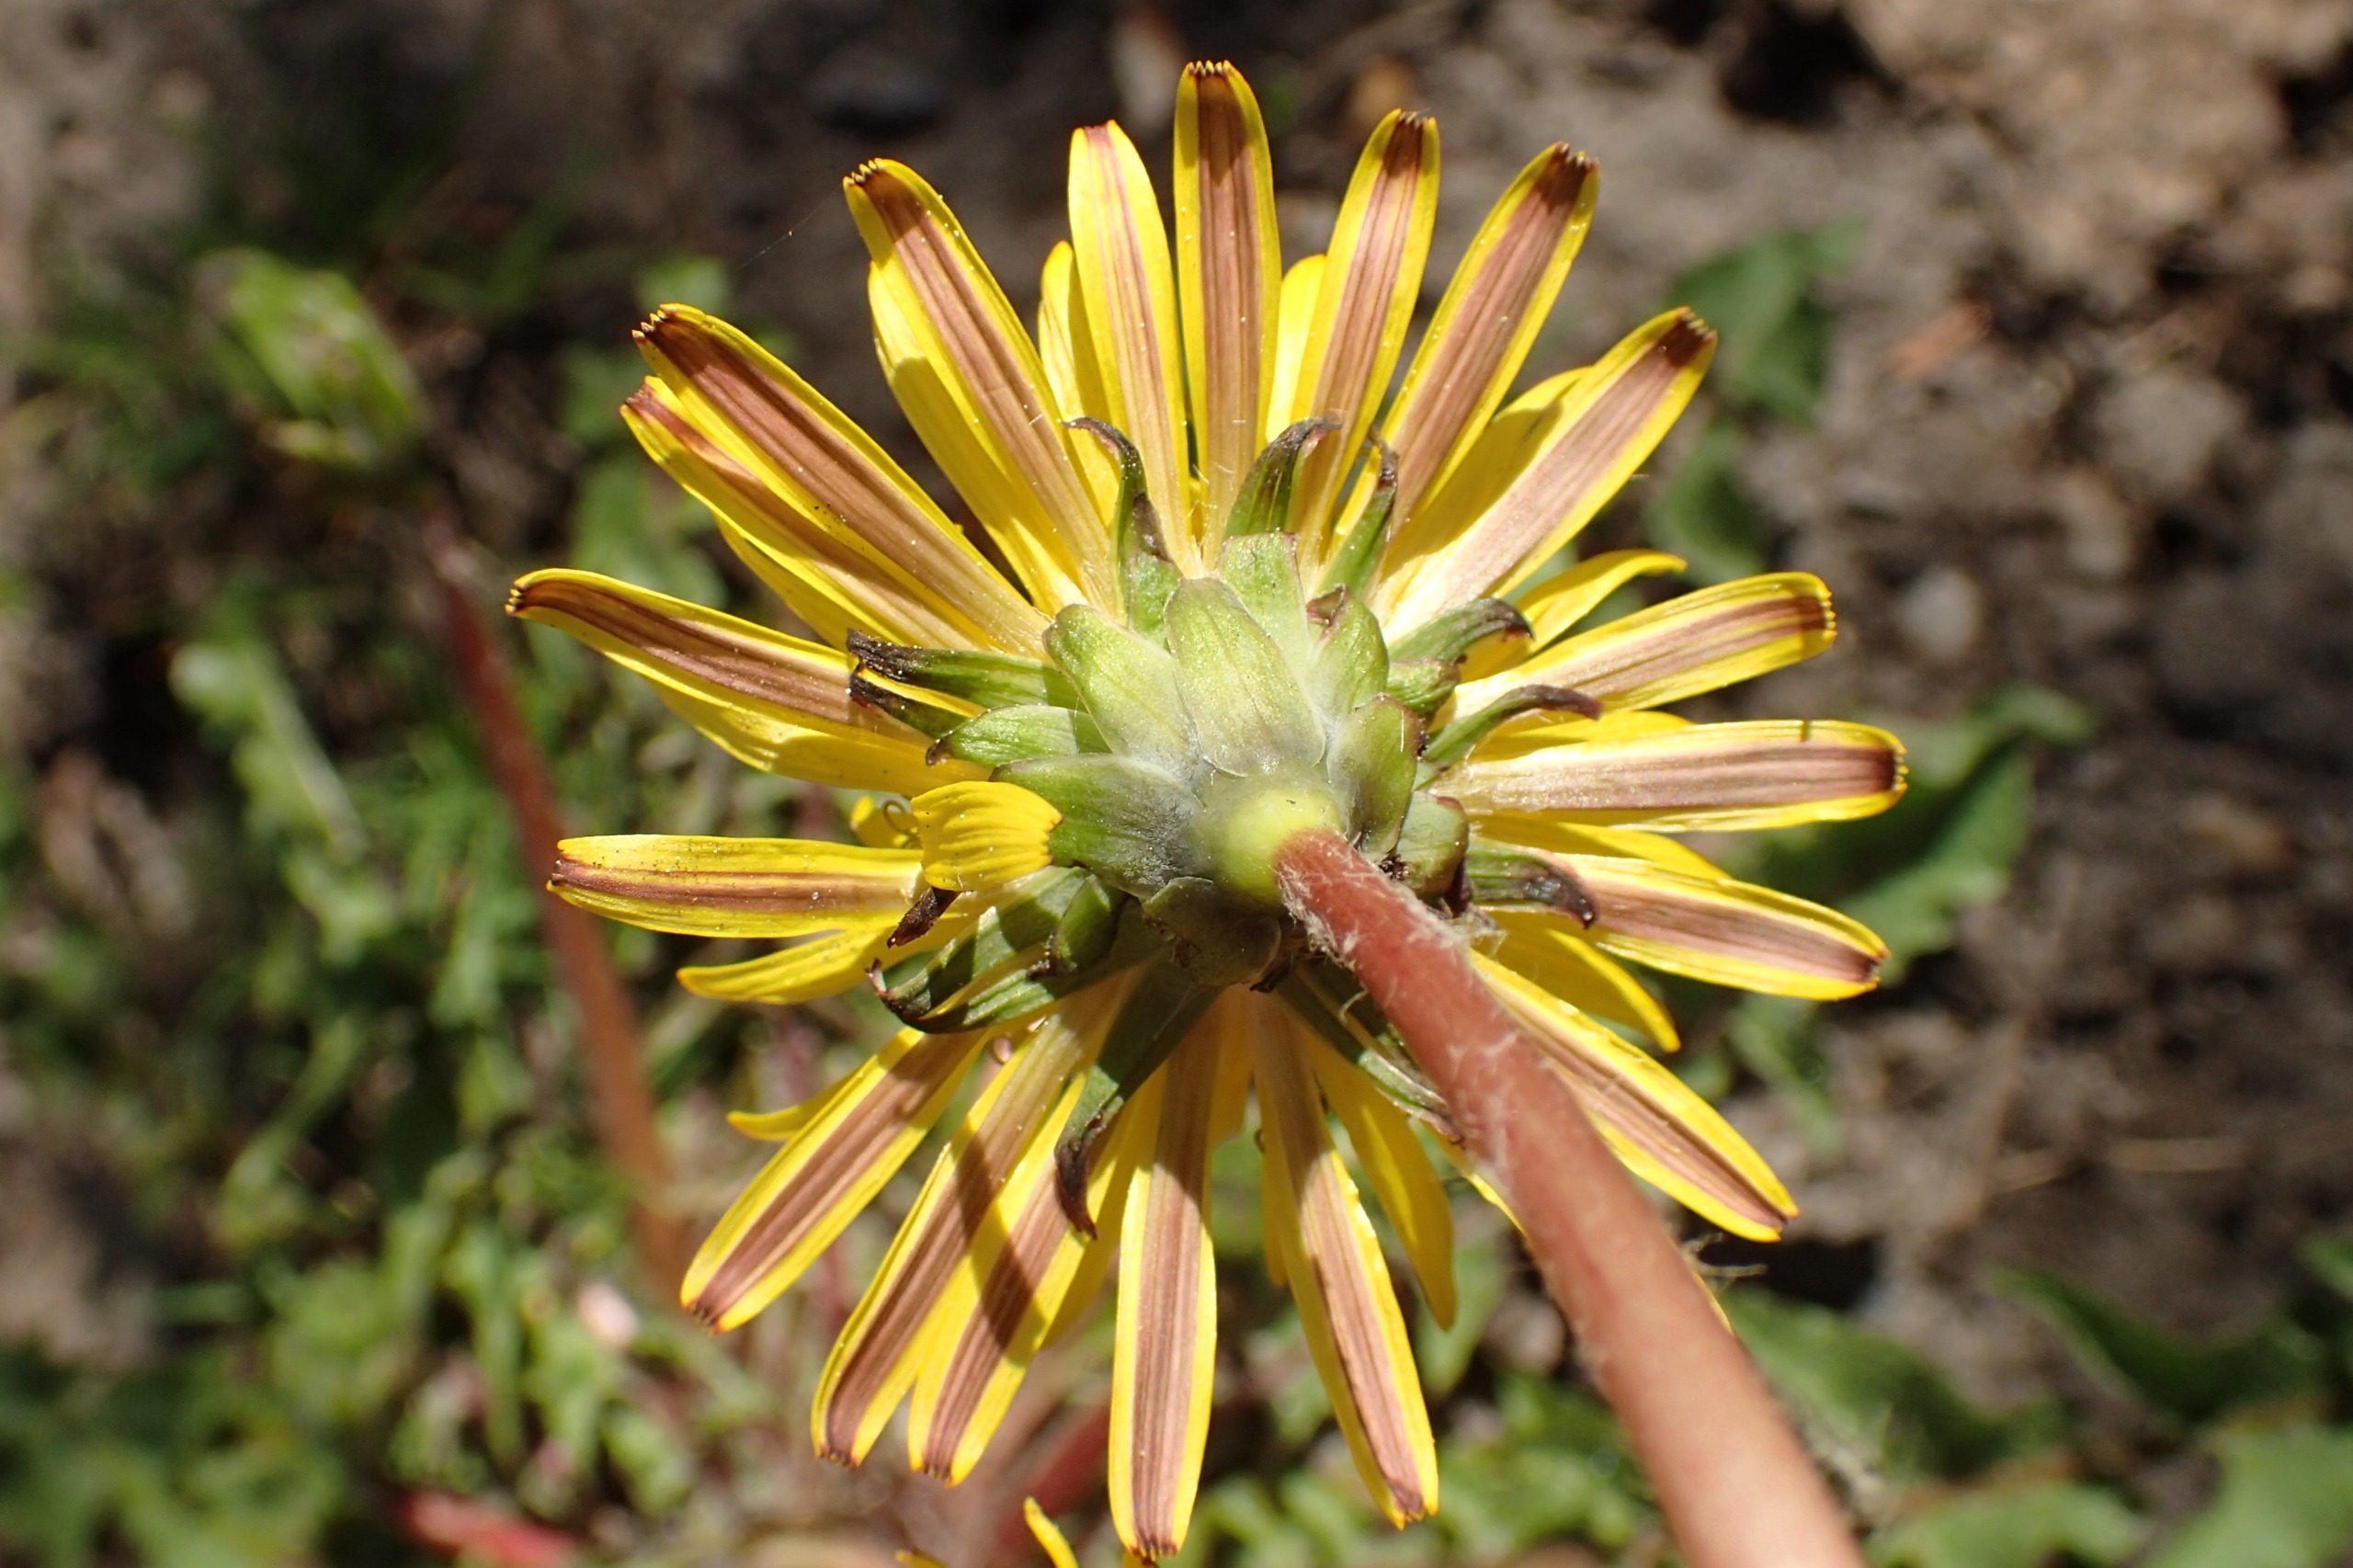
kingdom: Plantae
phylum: Tracheophyta
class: Magnoliopsida
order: Asterales
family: Asteraceae
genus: Taraxacum
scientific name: Taraxacum faeroense
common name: Kimbrisk atlantmælkebøtte
